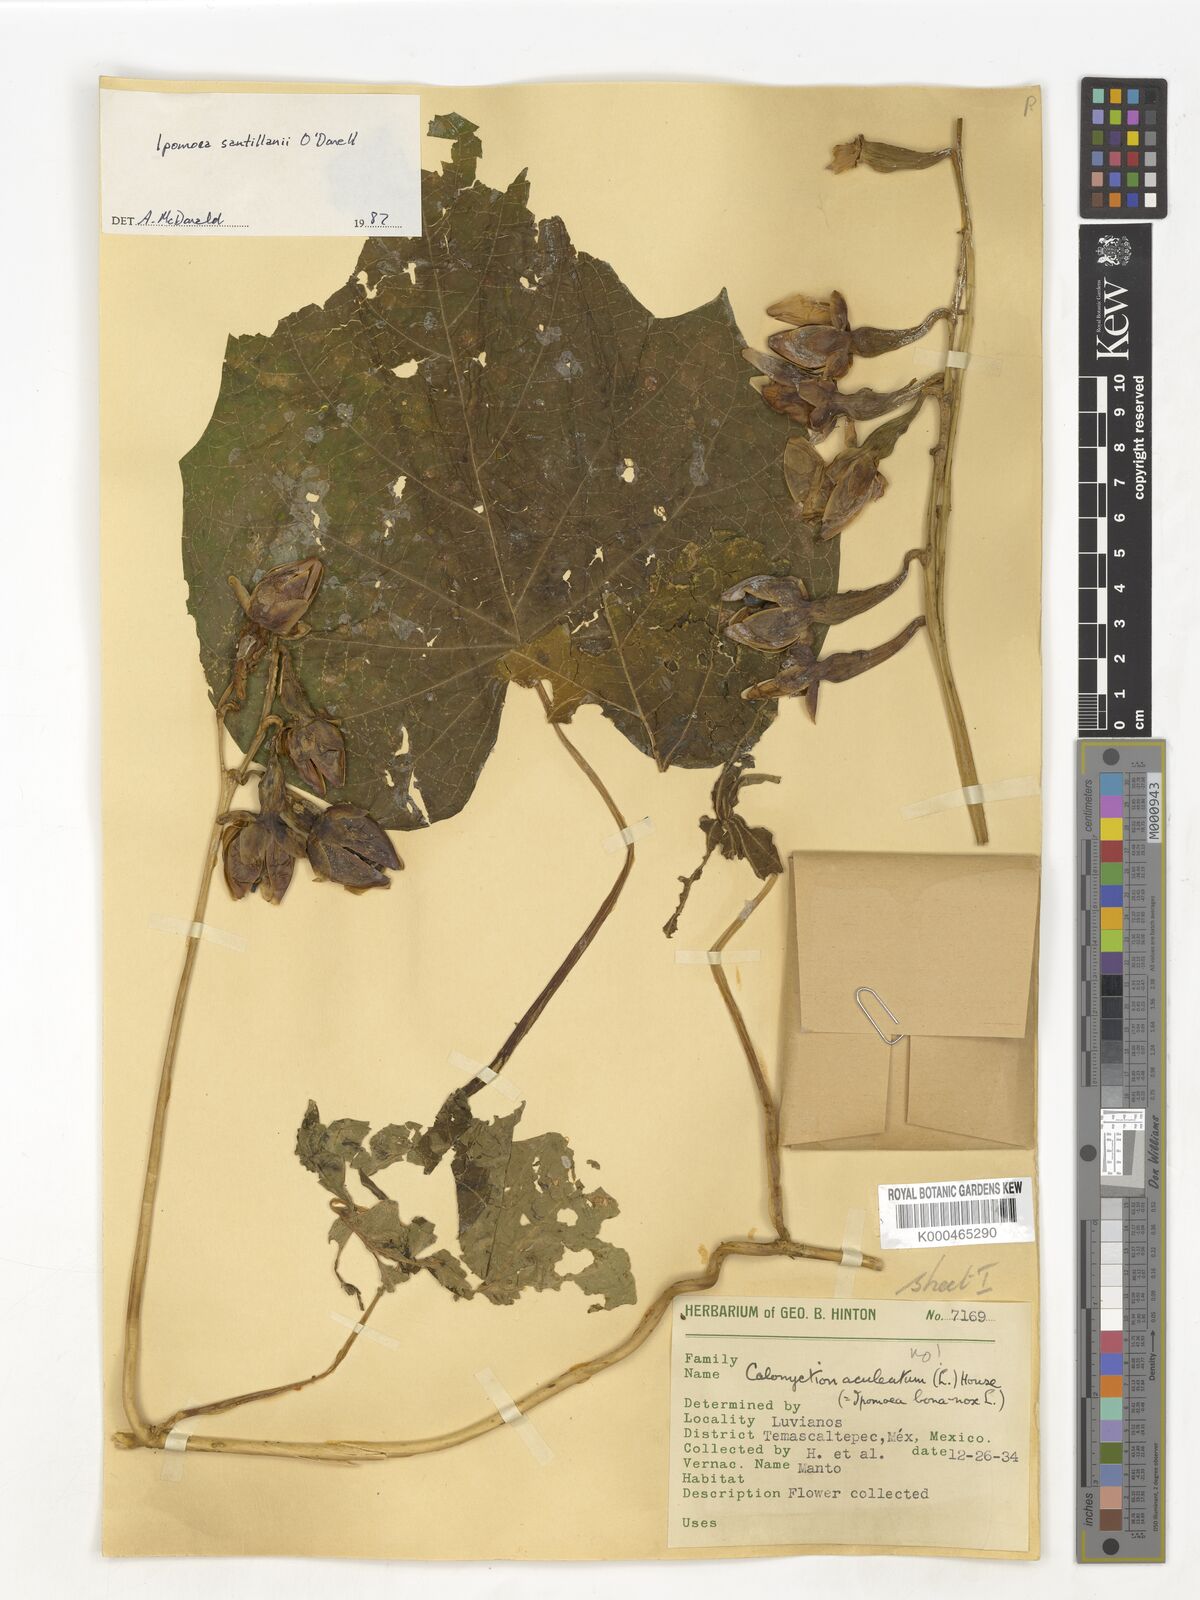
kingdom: Plantae
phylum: Tracheophyta
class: Magnoliopsida
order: Solanales
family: Convolvulaceae
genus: Ipomoea
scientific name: Ipomoea
